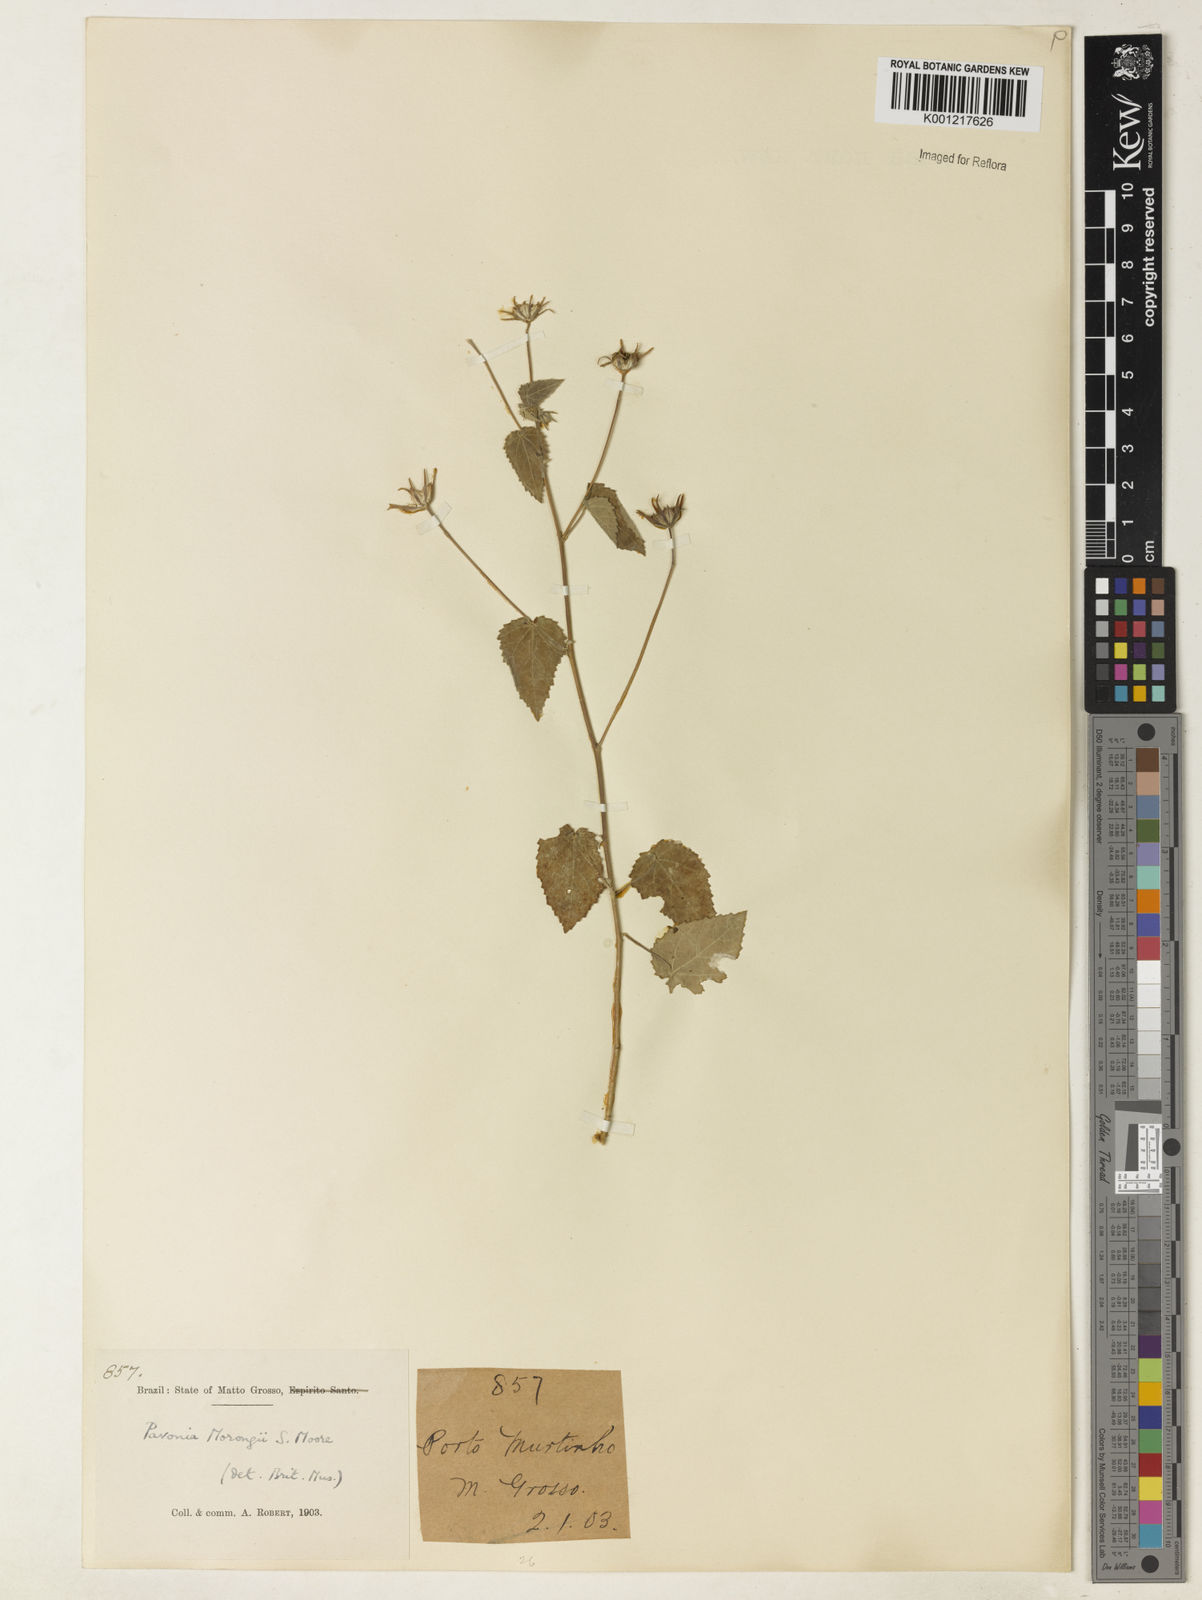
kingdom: Plantae
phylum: Tracheophyta
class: Magnoliopsida
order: Malvales
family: Malvaceae
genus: Pavonia
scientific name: Pavonia
